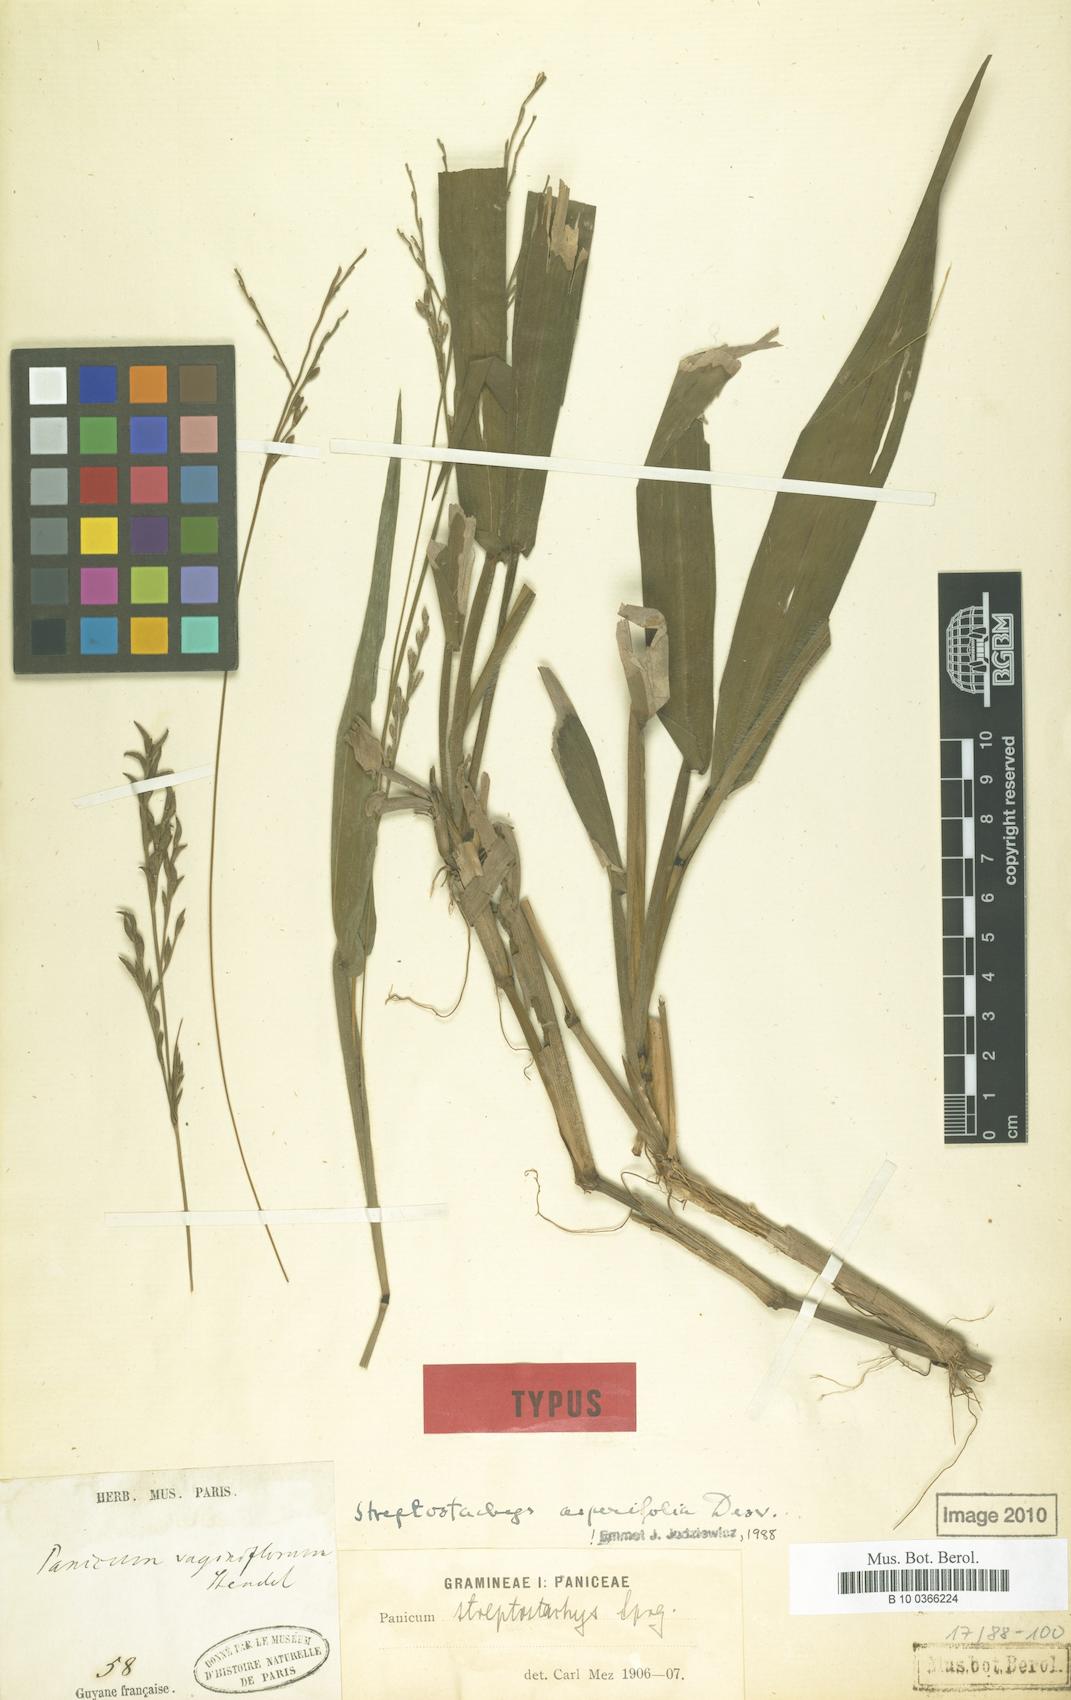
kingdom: Plantae
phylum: Tracheophyta
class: Liliopsida
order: Poales
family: Poaceae
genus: Streptostachys
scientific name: Streptostachys asperifolia
